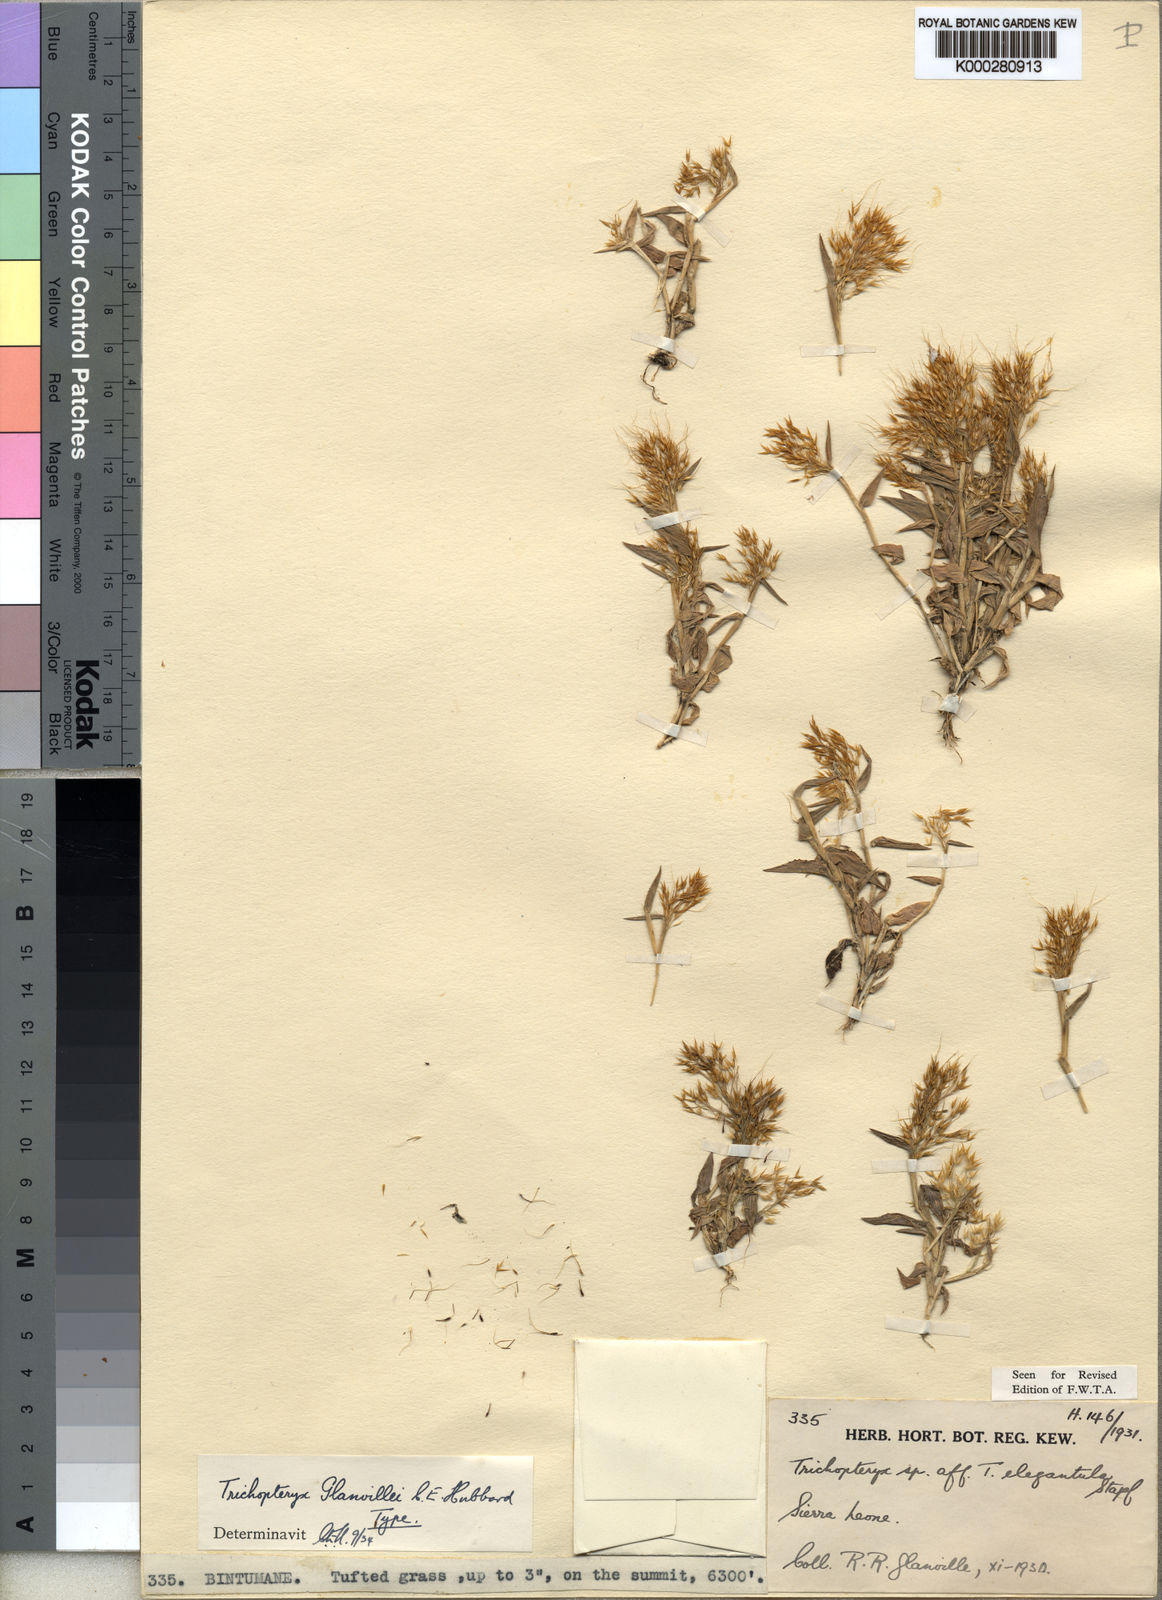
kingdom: Plantae
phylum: Tracheophyta
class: Liliopsida
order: Poales
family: Poaceae
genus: Trichopteryx
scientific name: Trichopteryx elegantula
